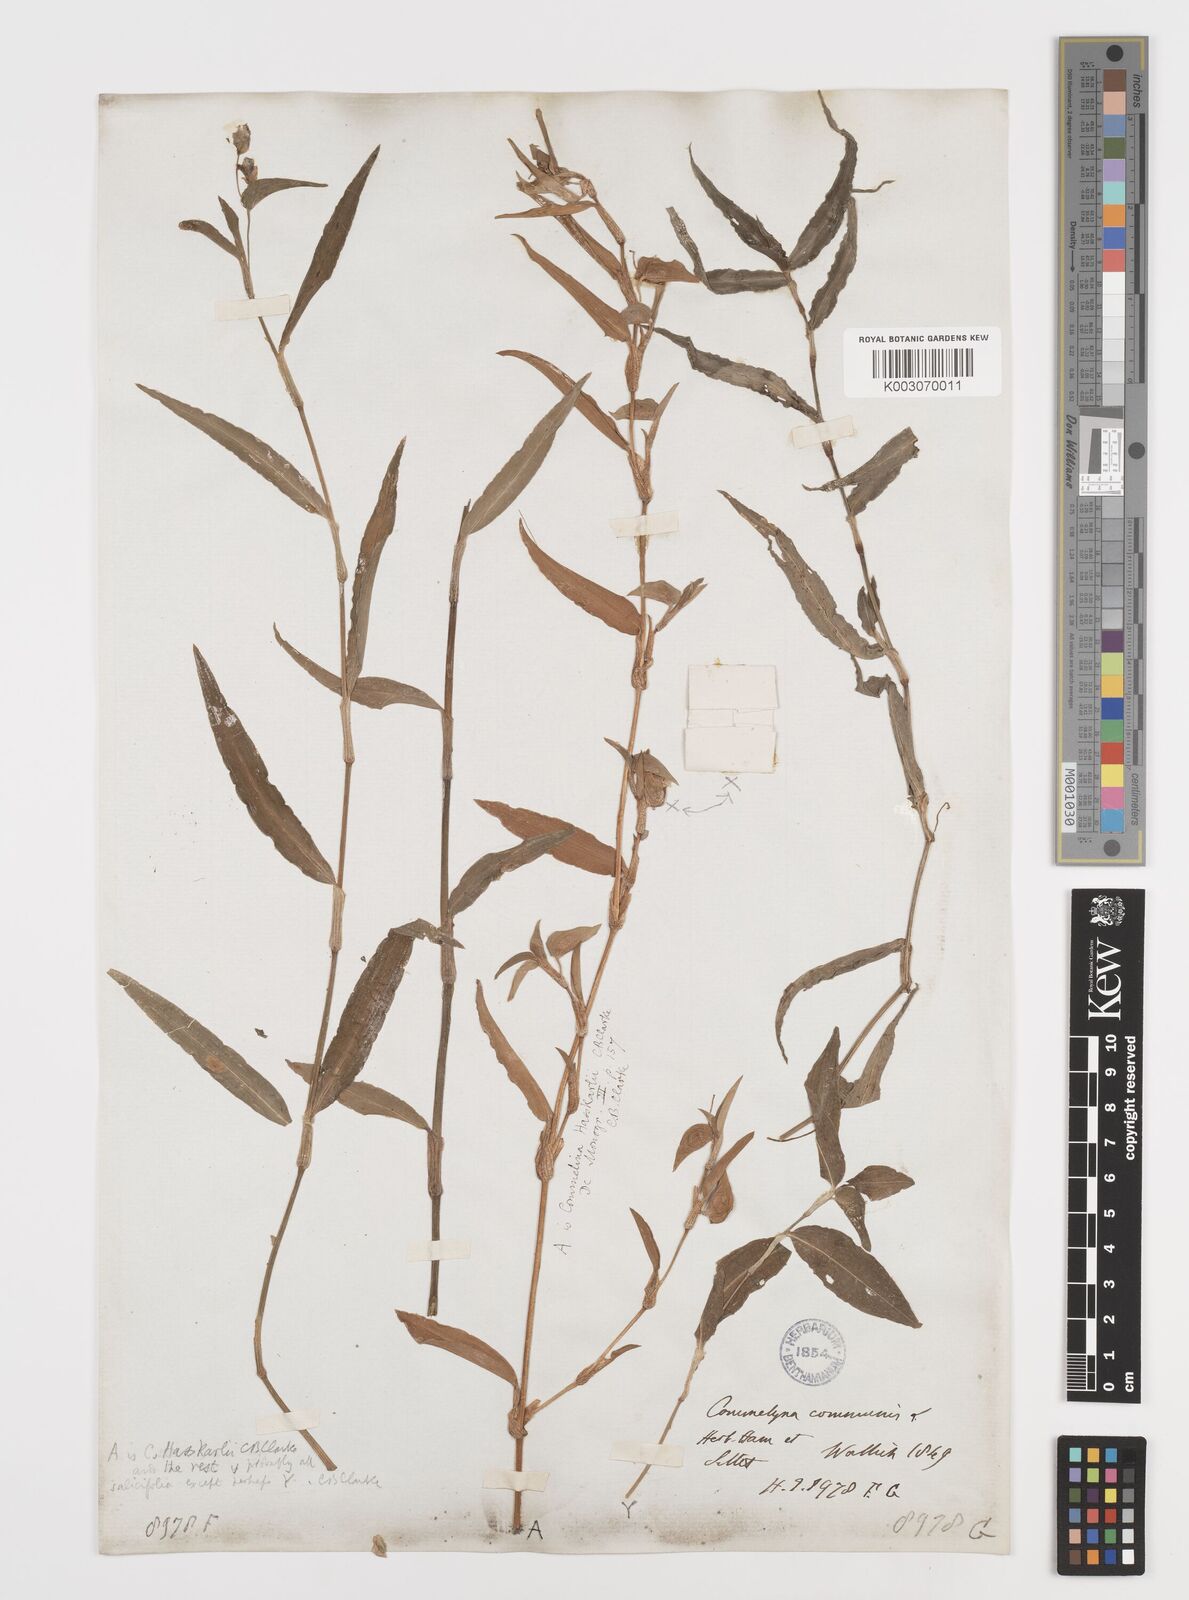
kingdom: Plantae
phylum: Tracheophyta
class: Liliopsida
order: Commelinales
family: Commelinaceae
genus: Commelina
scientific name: Commelina caroliniana
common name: Carolina dayflower
